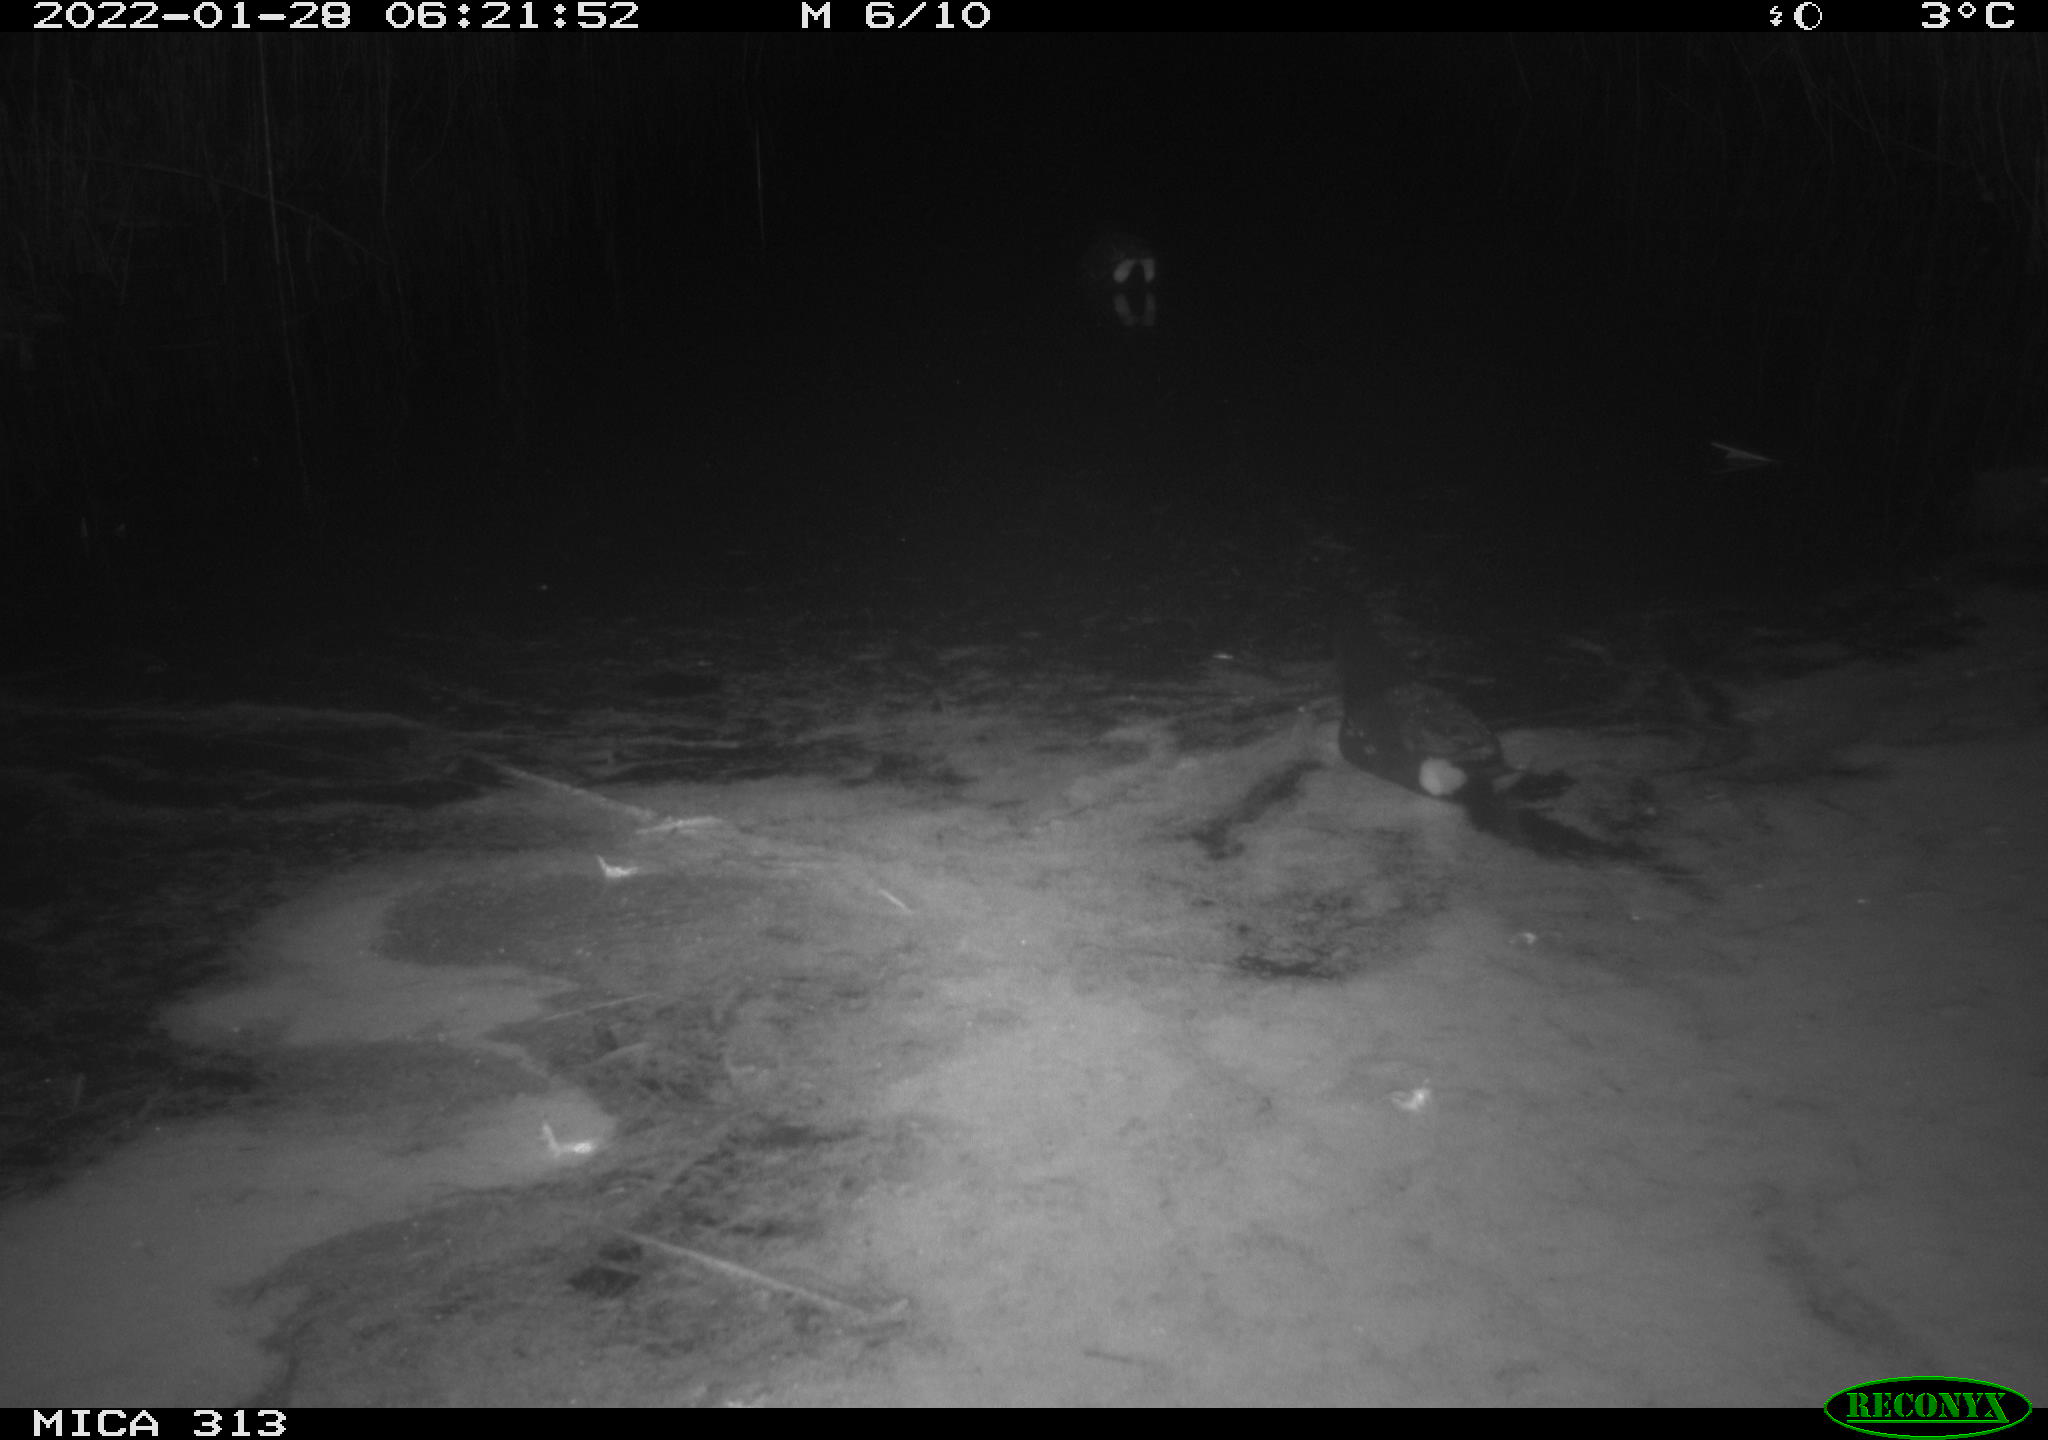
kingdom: Animalia
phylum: Chordata
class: Aves
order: Gruiformes
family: Rallidae
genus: Gallinula
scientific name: Gallinula chloropus
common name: Common moorhen
